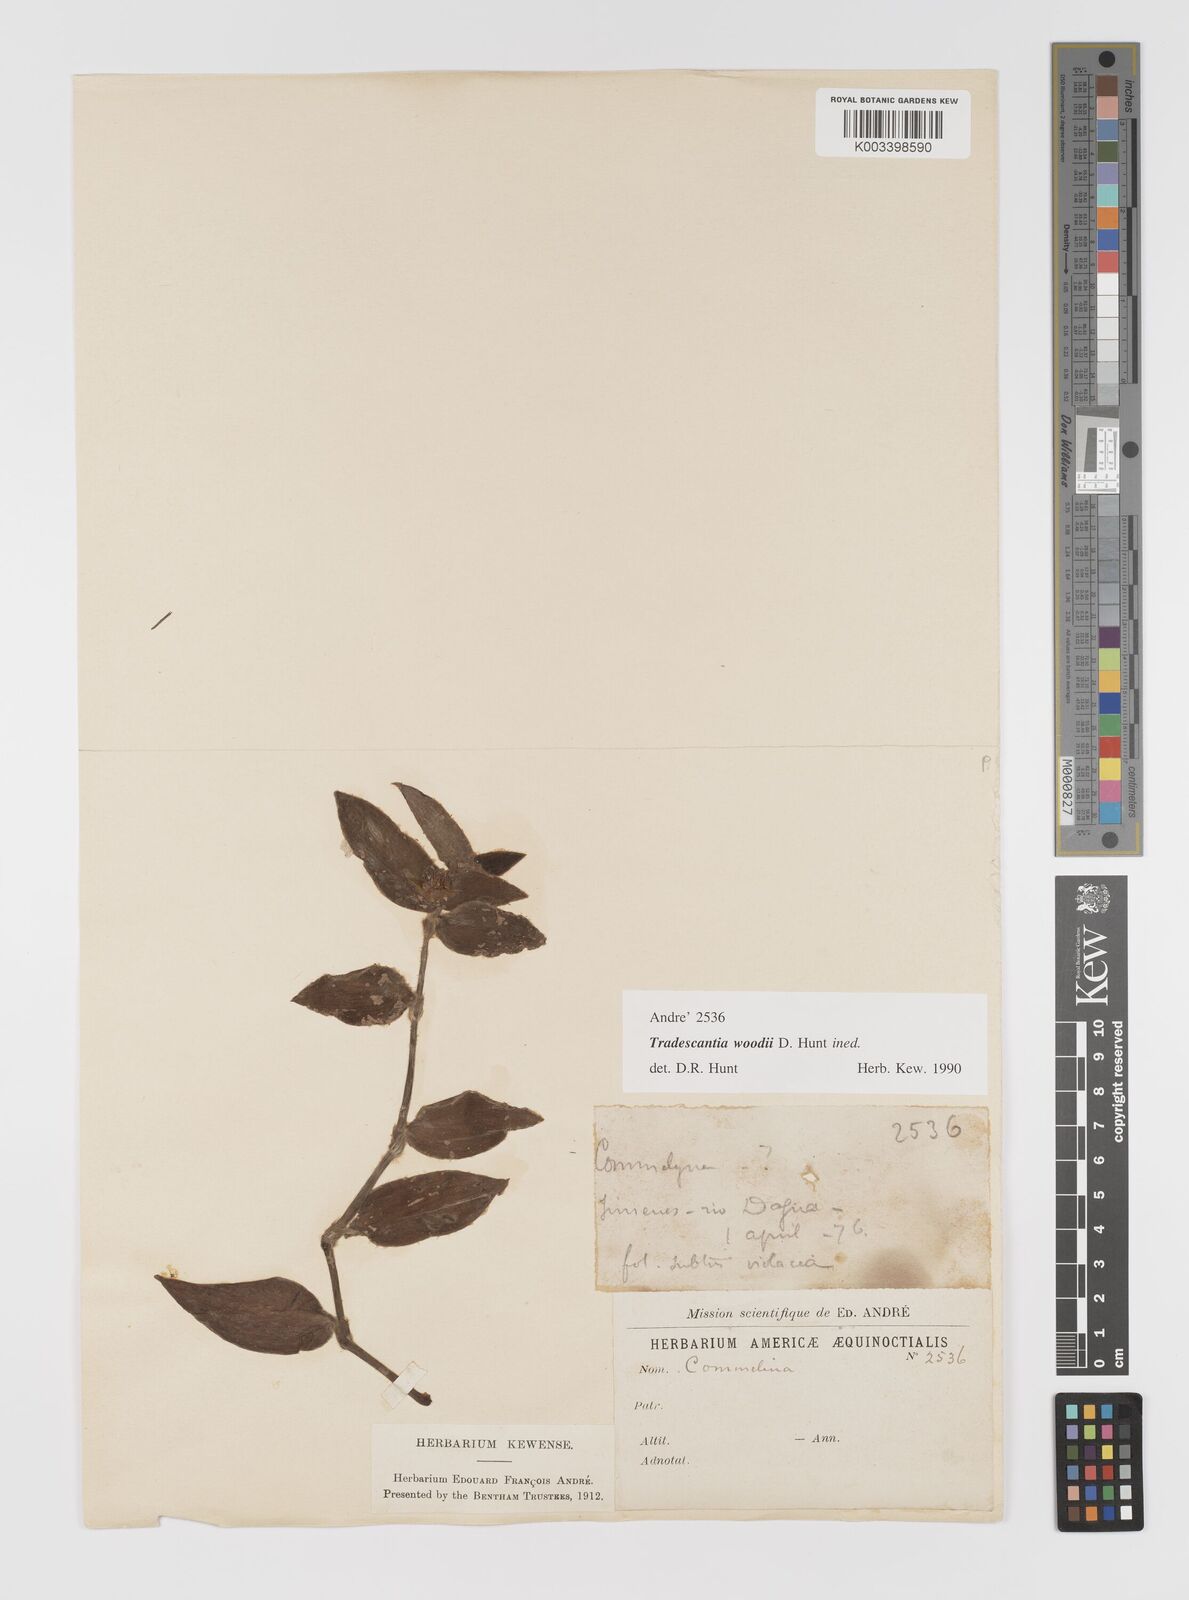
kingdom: Plantae
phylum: Tracheophyta
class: Liliopsida
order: Commelinales
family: Commelinaceae
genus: Tradescantia
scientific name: Tradescantia
